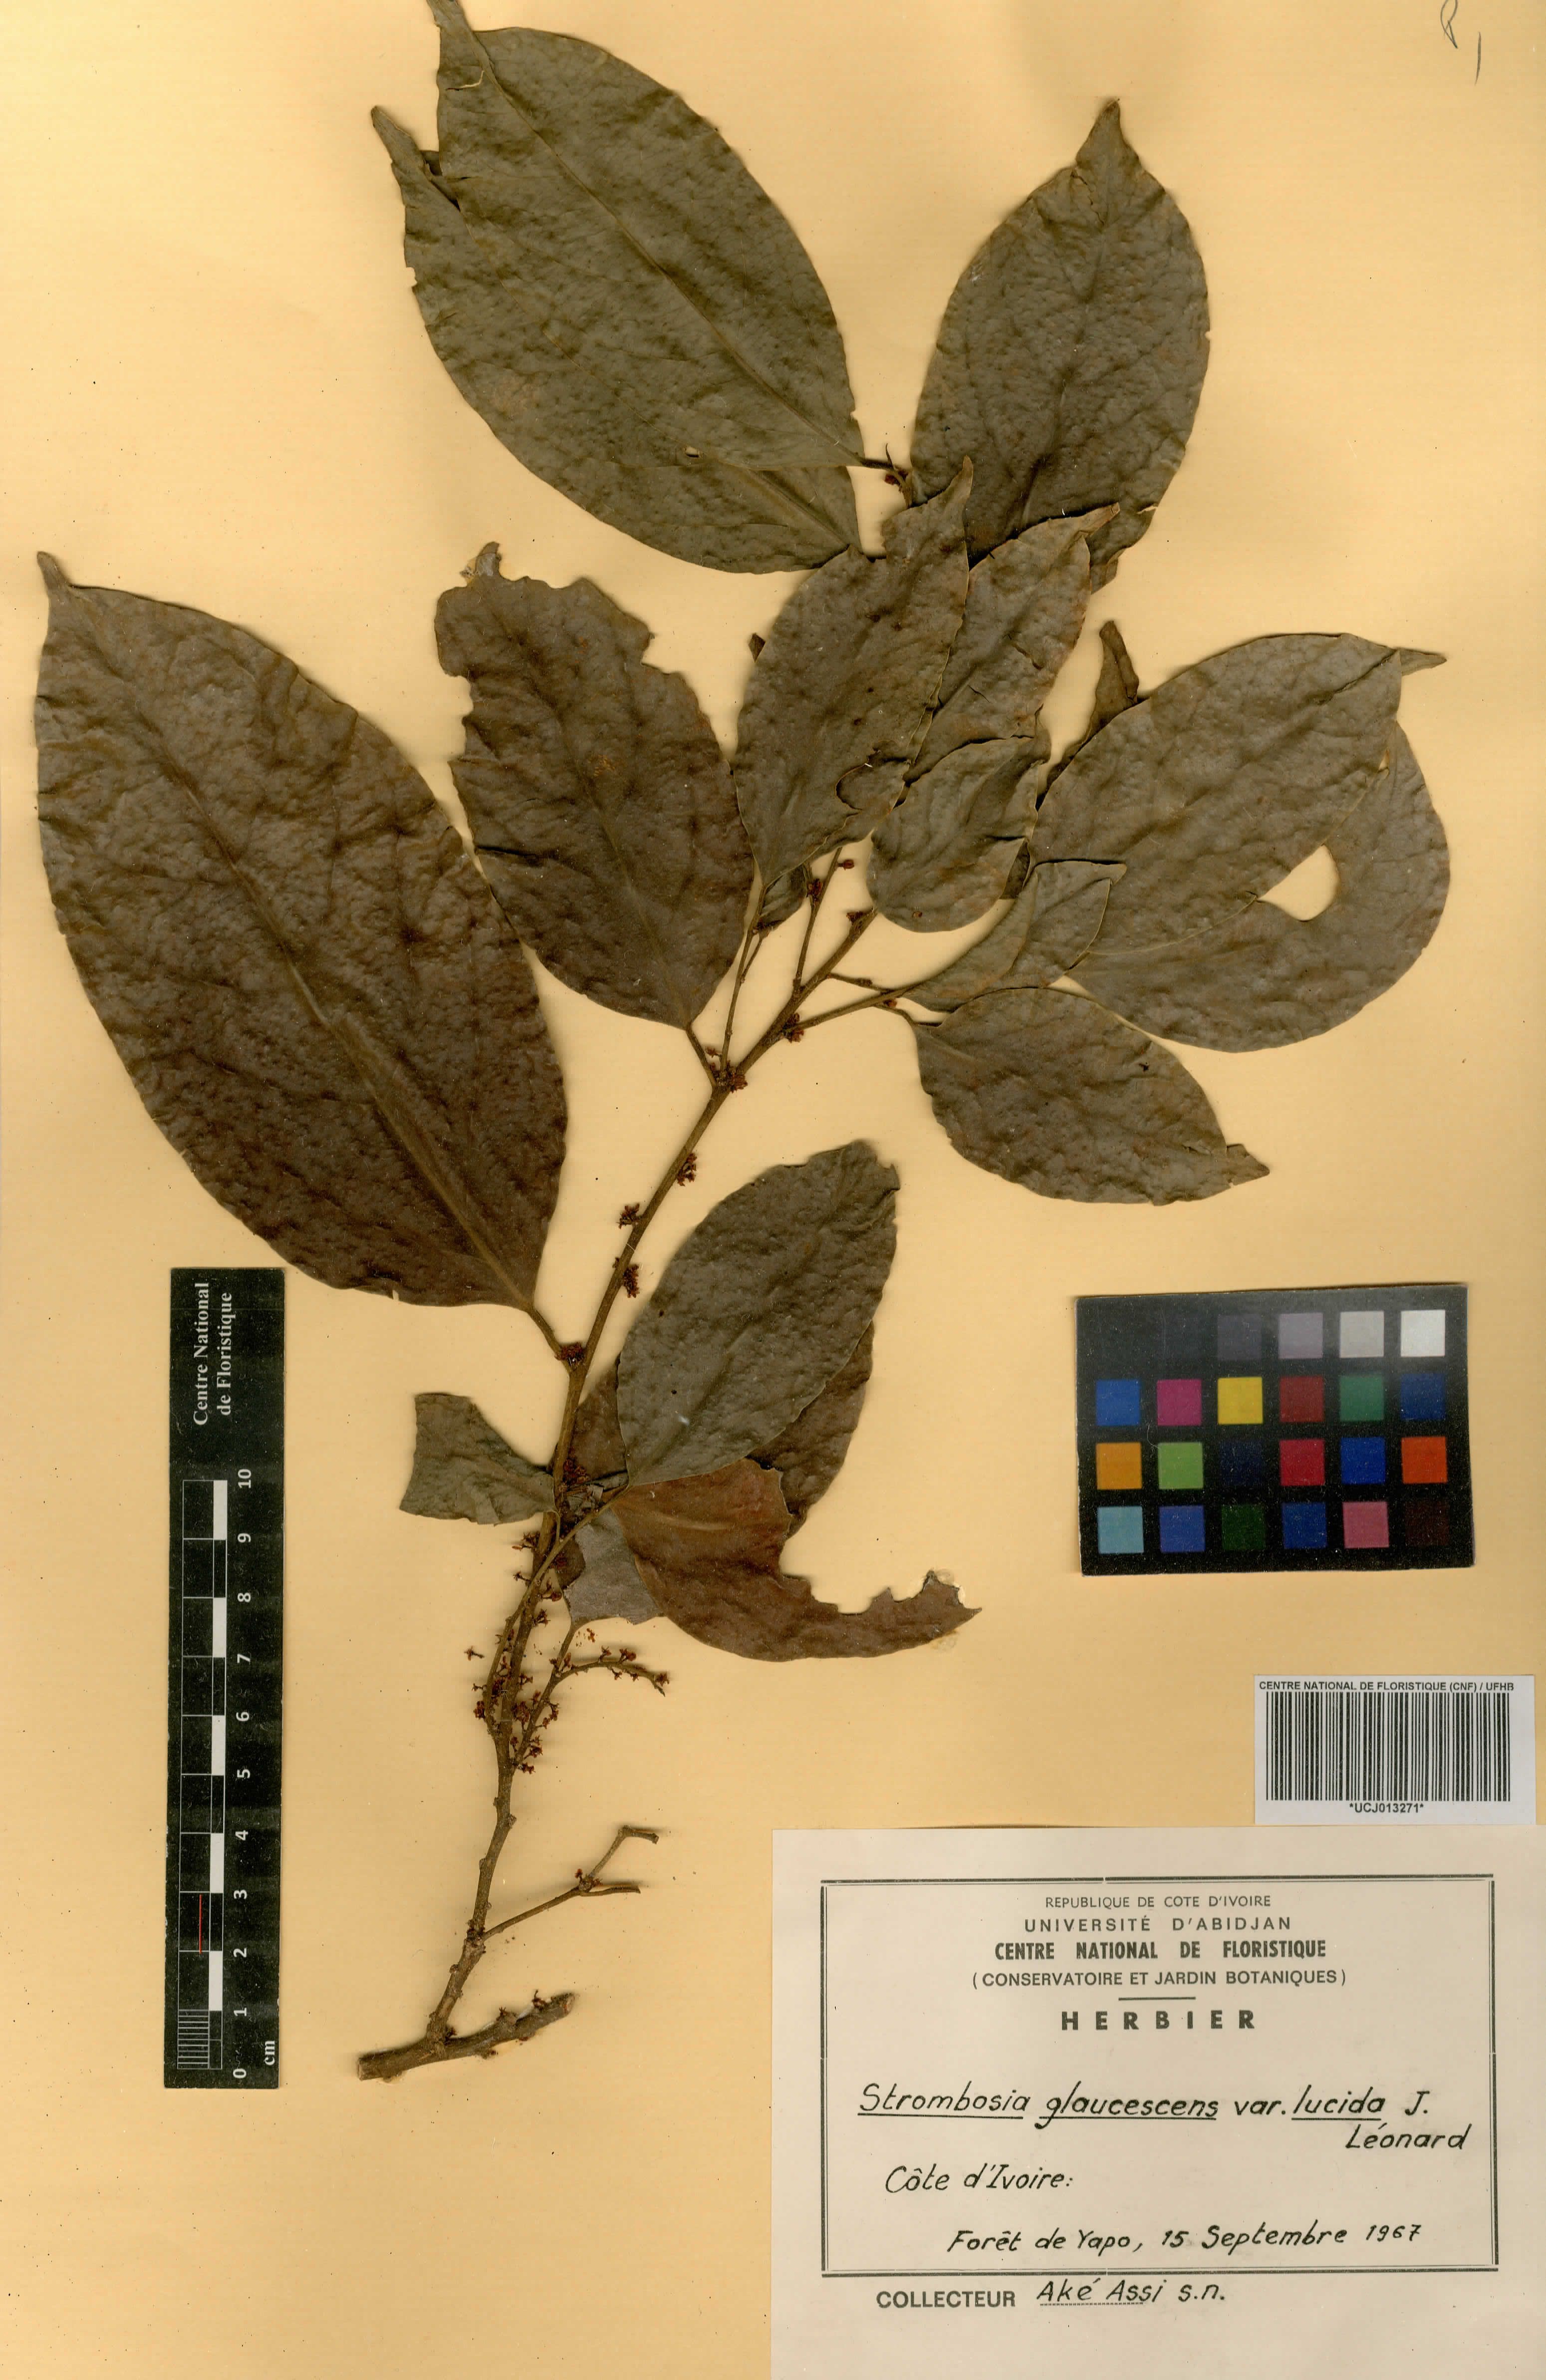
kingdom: Plantae
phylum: Tracheophyta
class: Magnoliopsida
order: Santalales
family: Strombosiaceae
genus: Strombosia
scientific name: Strombosia pustulata
